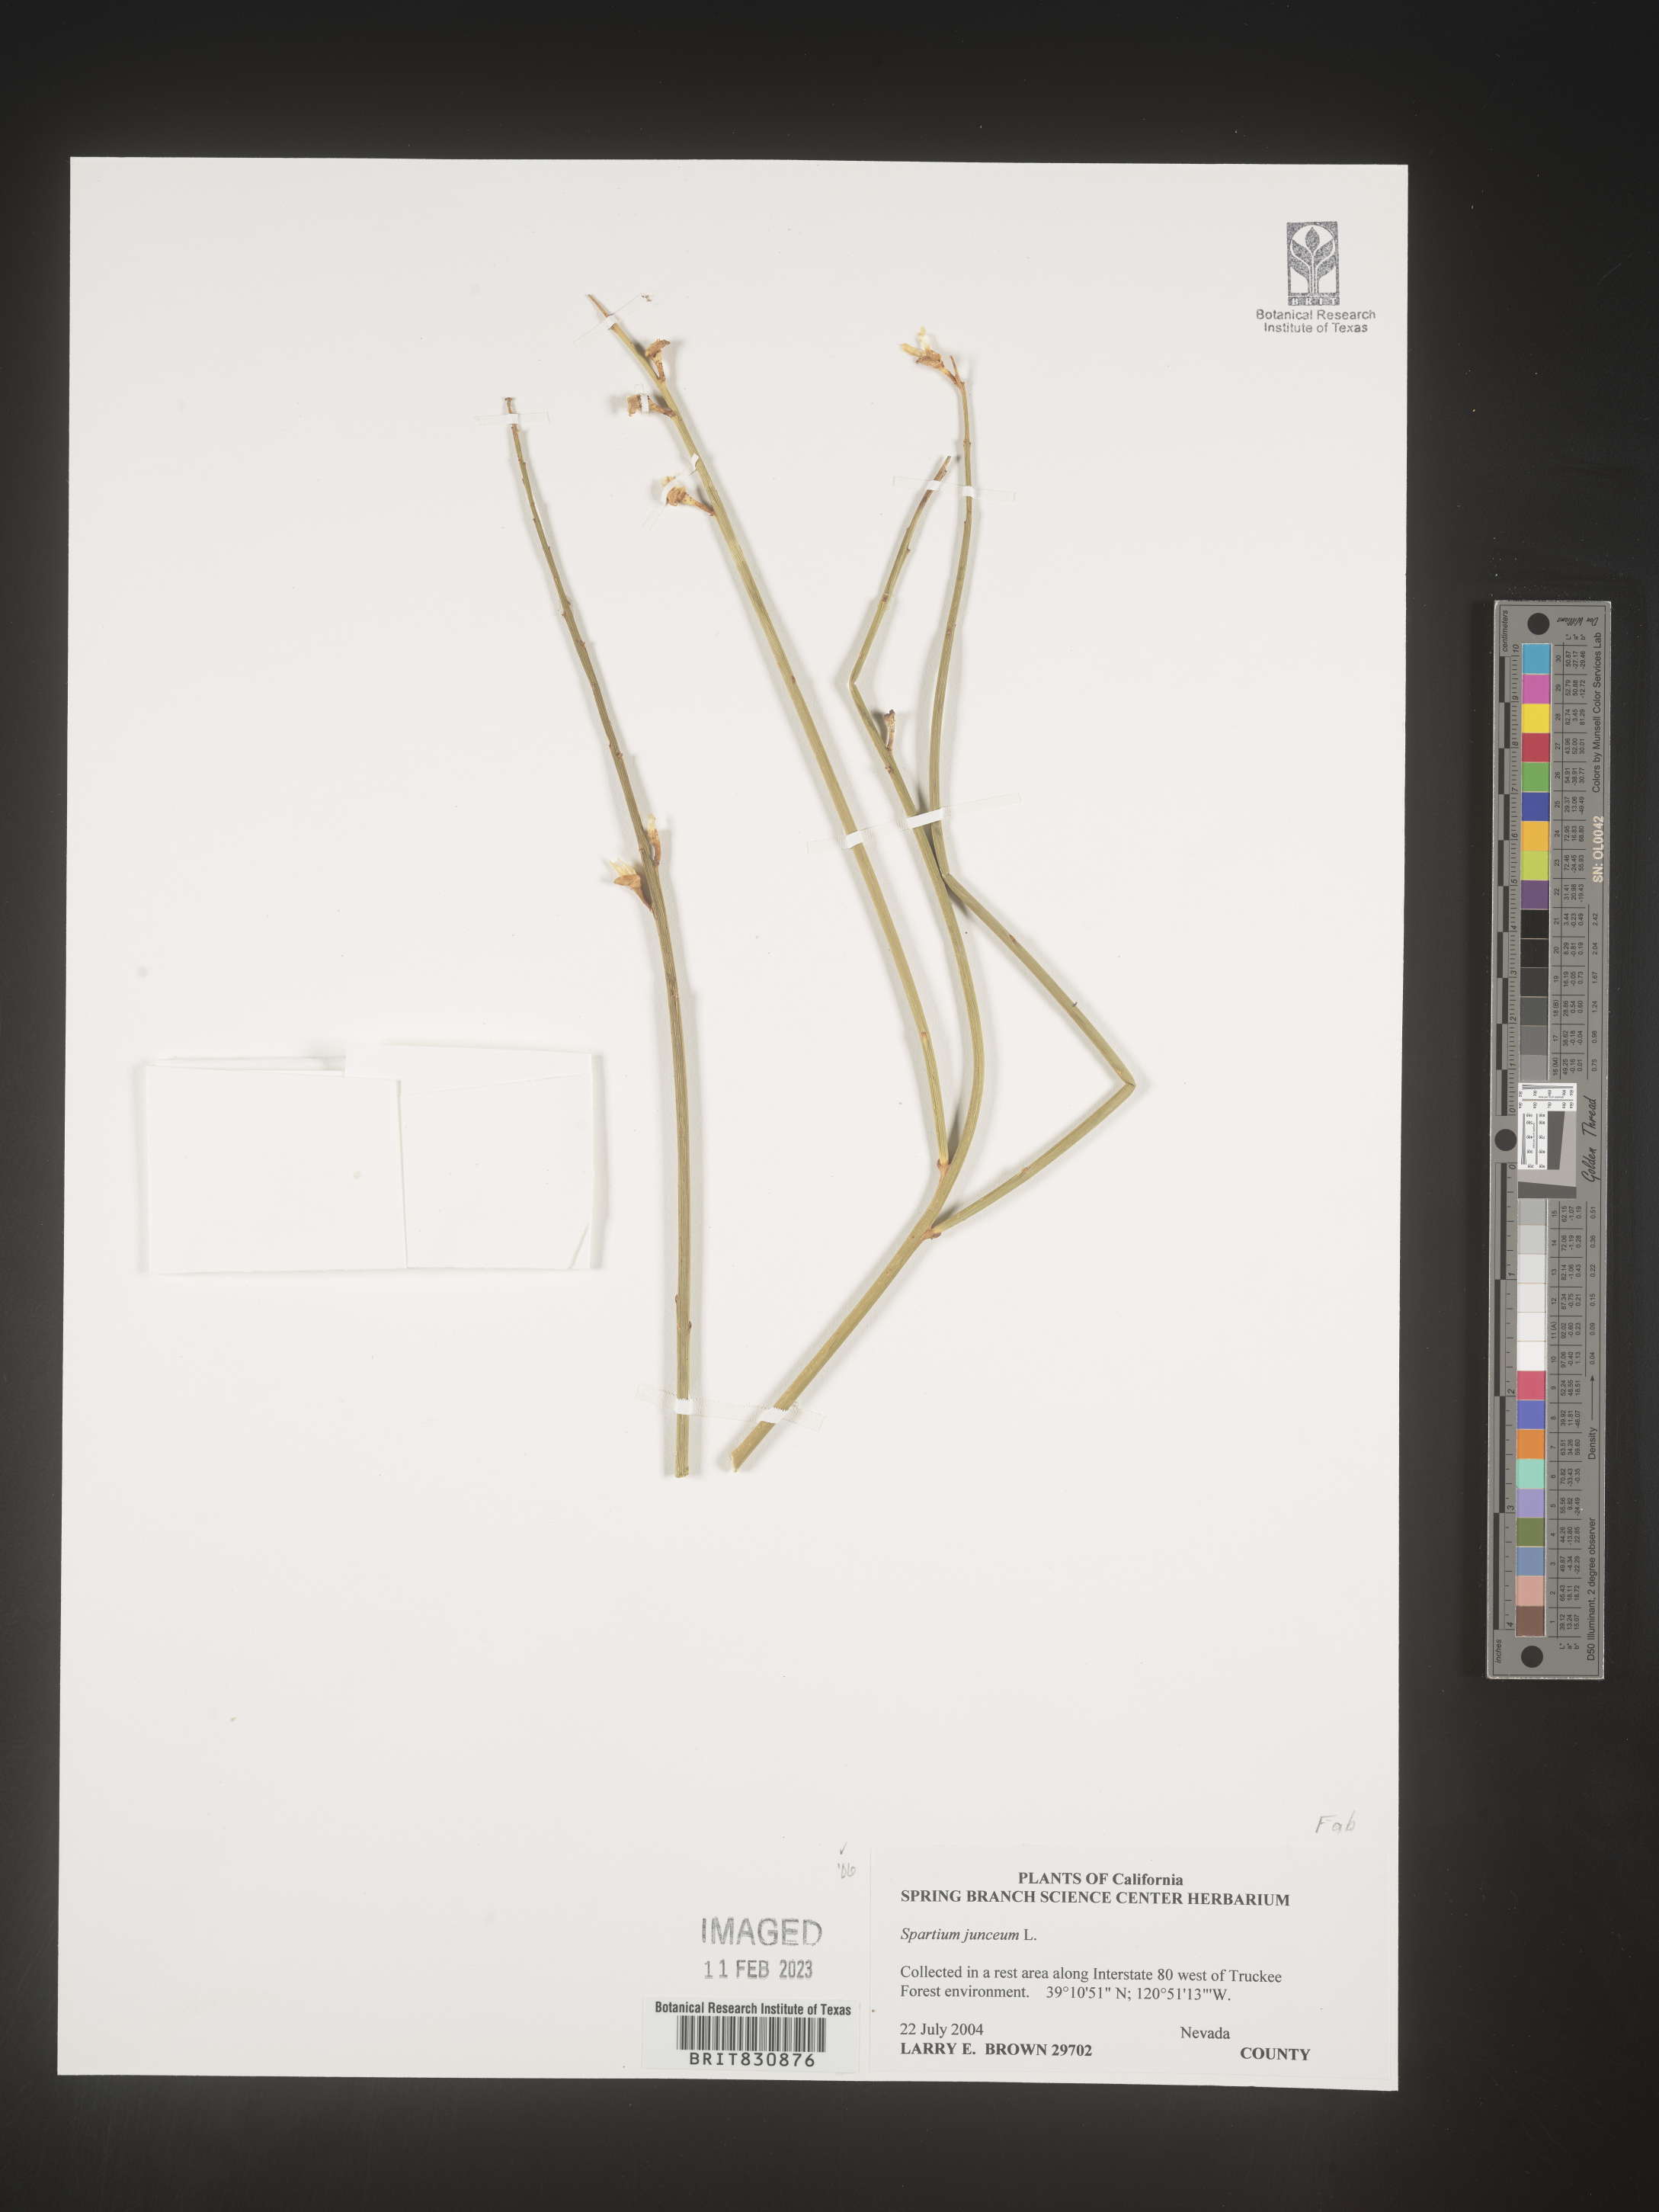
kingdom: Plantae
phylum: Tracheophyta
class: Magnoliopsida
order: Fabales
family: Fabaceae
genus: Spartium
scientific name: Spartium
